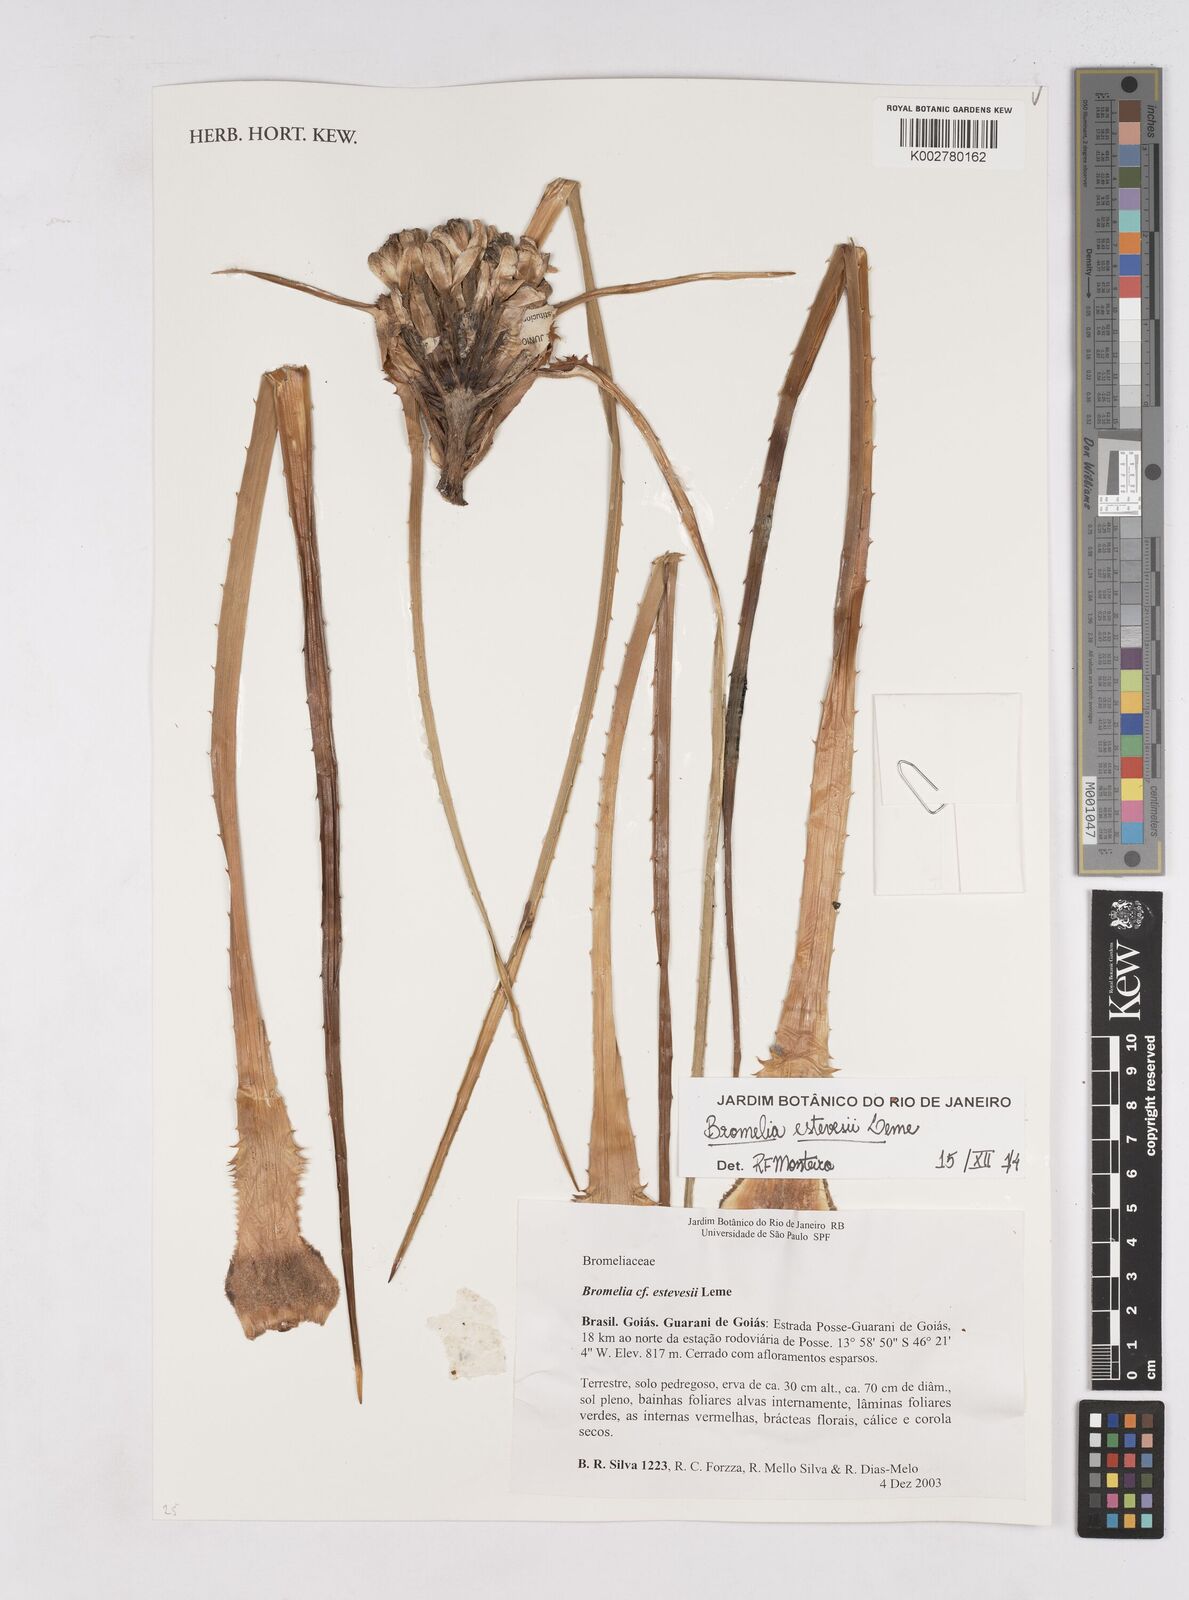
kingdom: Plantae
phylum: Tracheophyta
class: Liliopsida
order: Poales
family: Bromeliaceae
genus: Bromelia
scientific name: Bromelia estevesii
